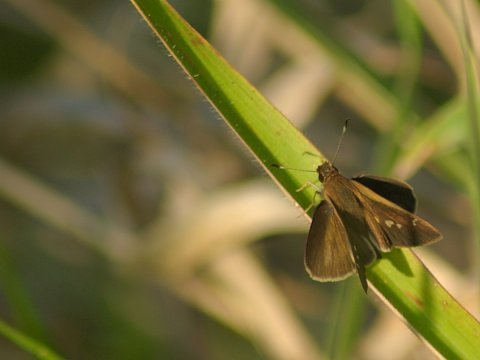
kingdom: Animalia
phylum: Arthropoda
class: Insecta
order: Lepidoptera
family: Hesperiidae
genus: Cumbre
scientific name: Cumbre cumbre
